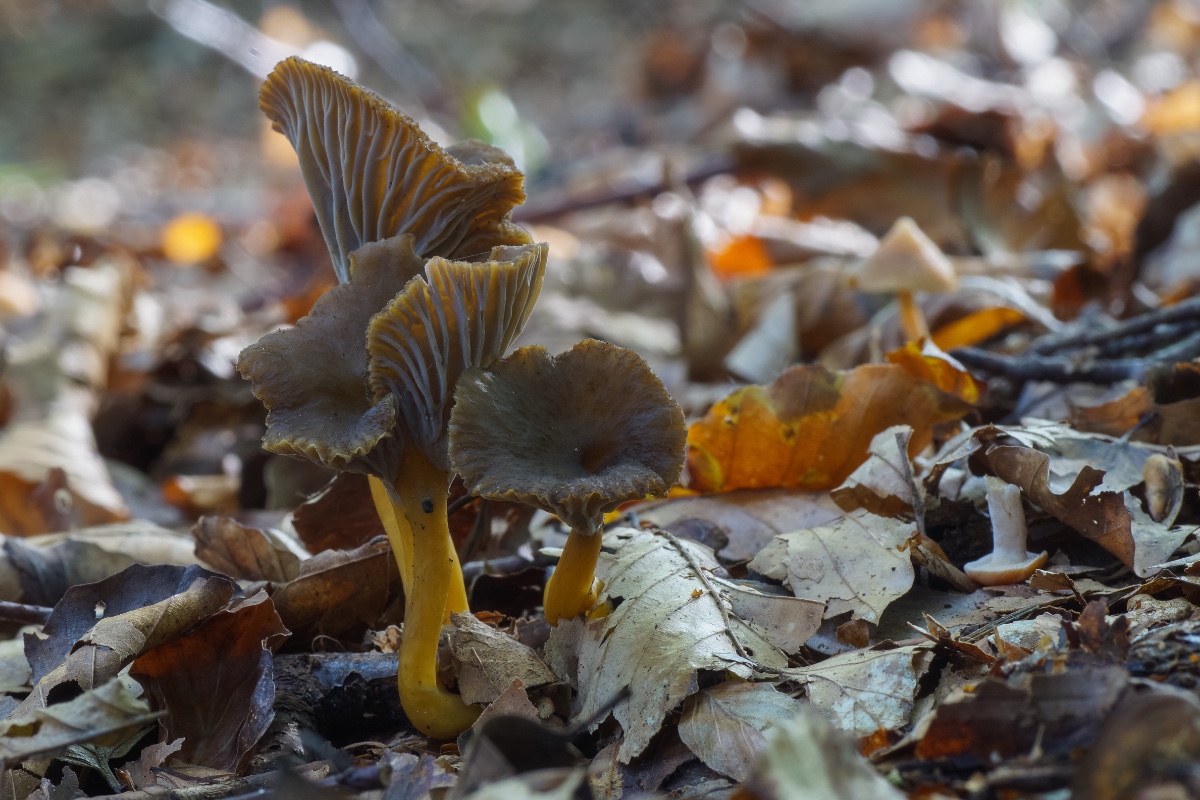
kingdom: Fungi
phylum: Basidiomycota
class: Agaricomycetes
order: Cantharellales
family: Hydnaceae
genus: Craterellus
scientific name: Craterellus tubaeformis
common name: tragt-kantarel
